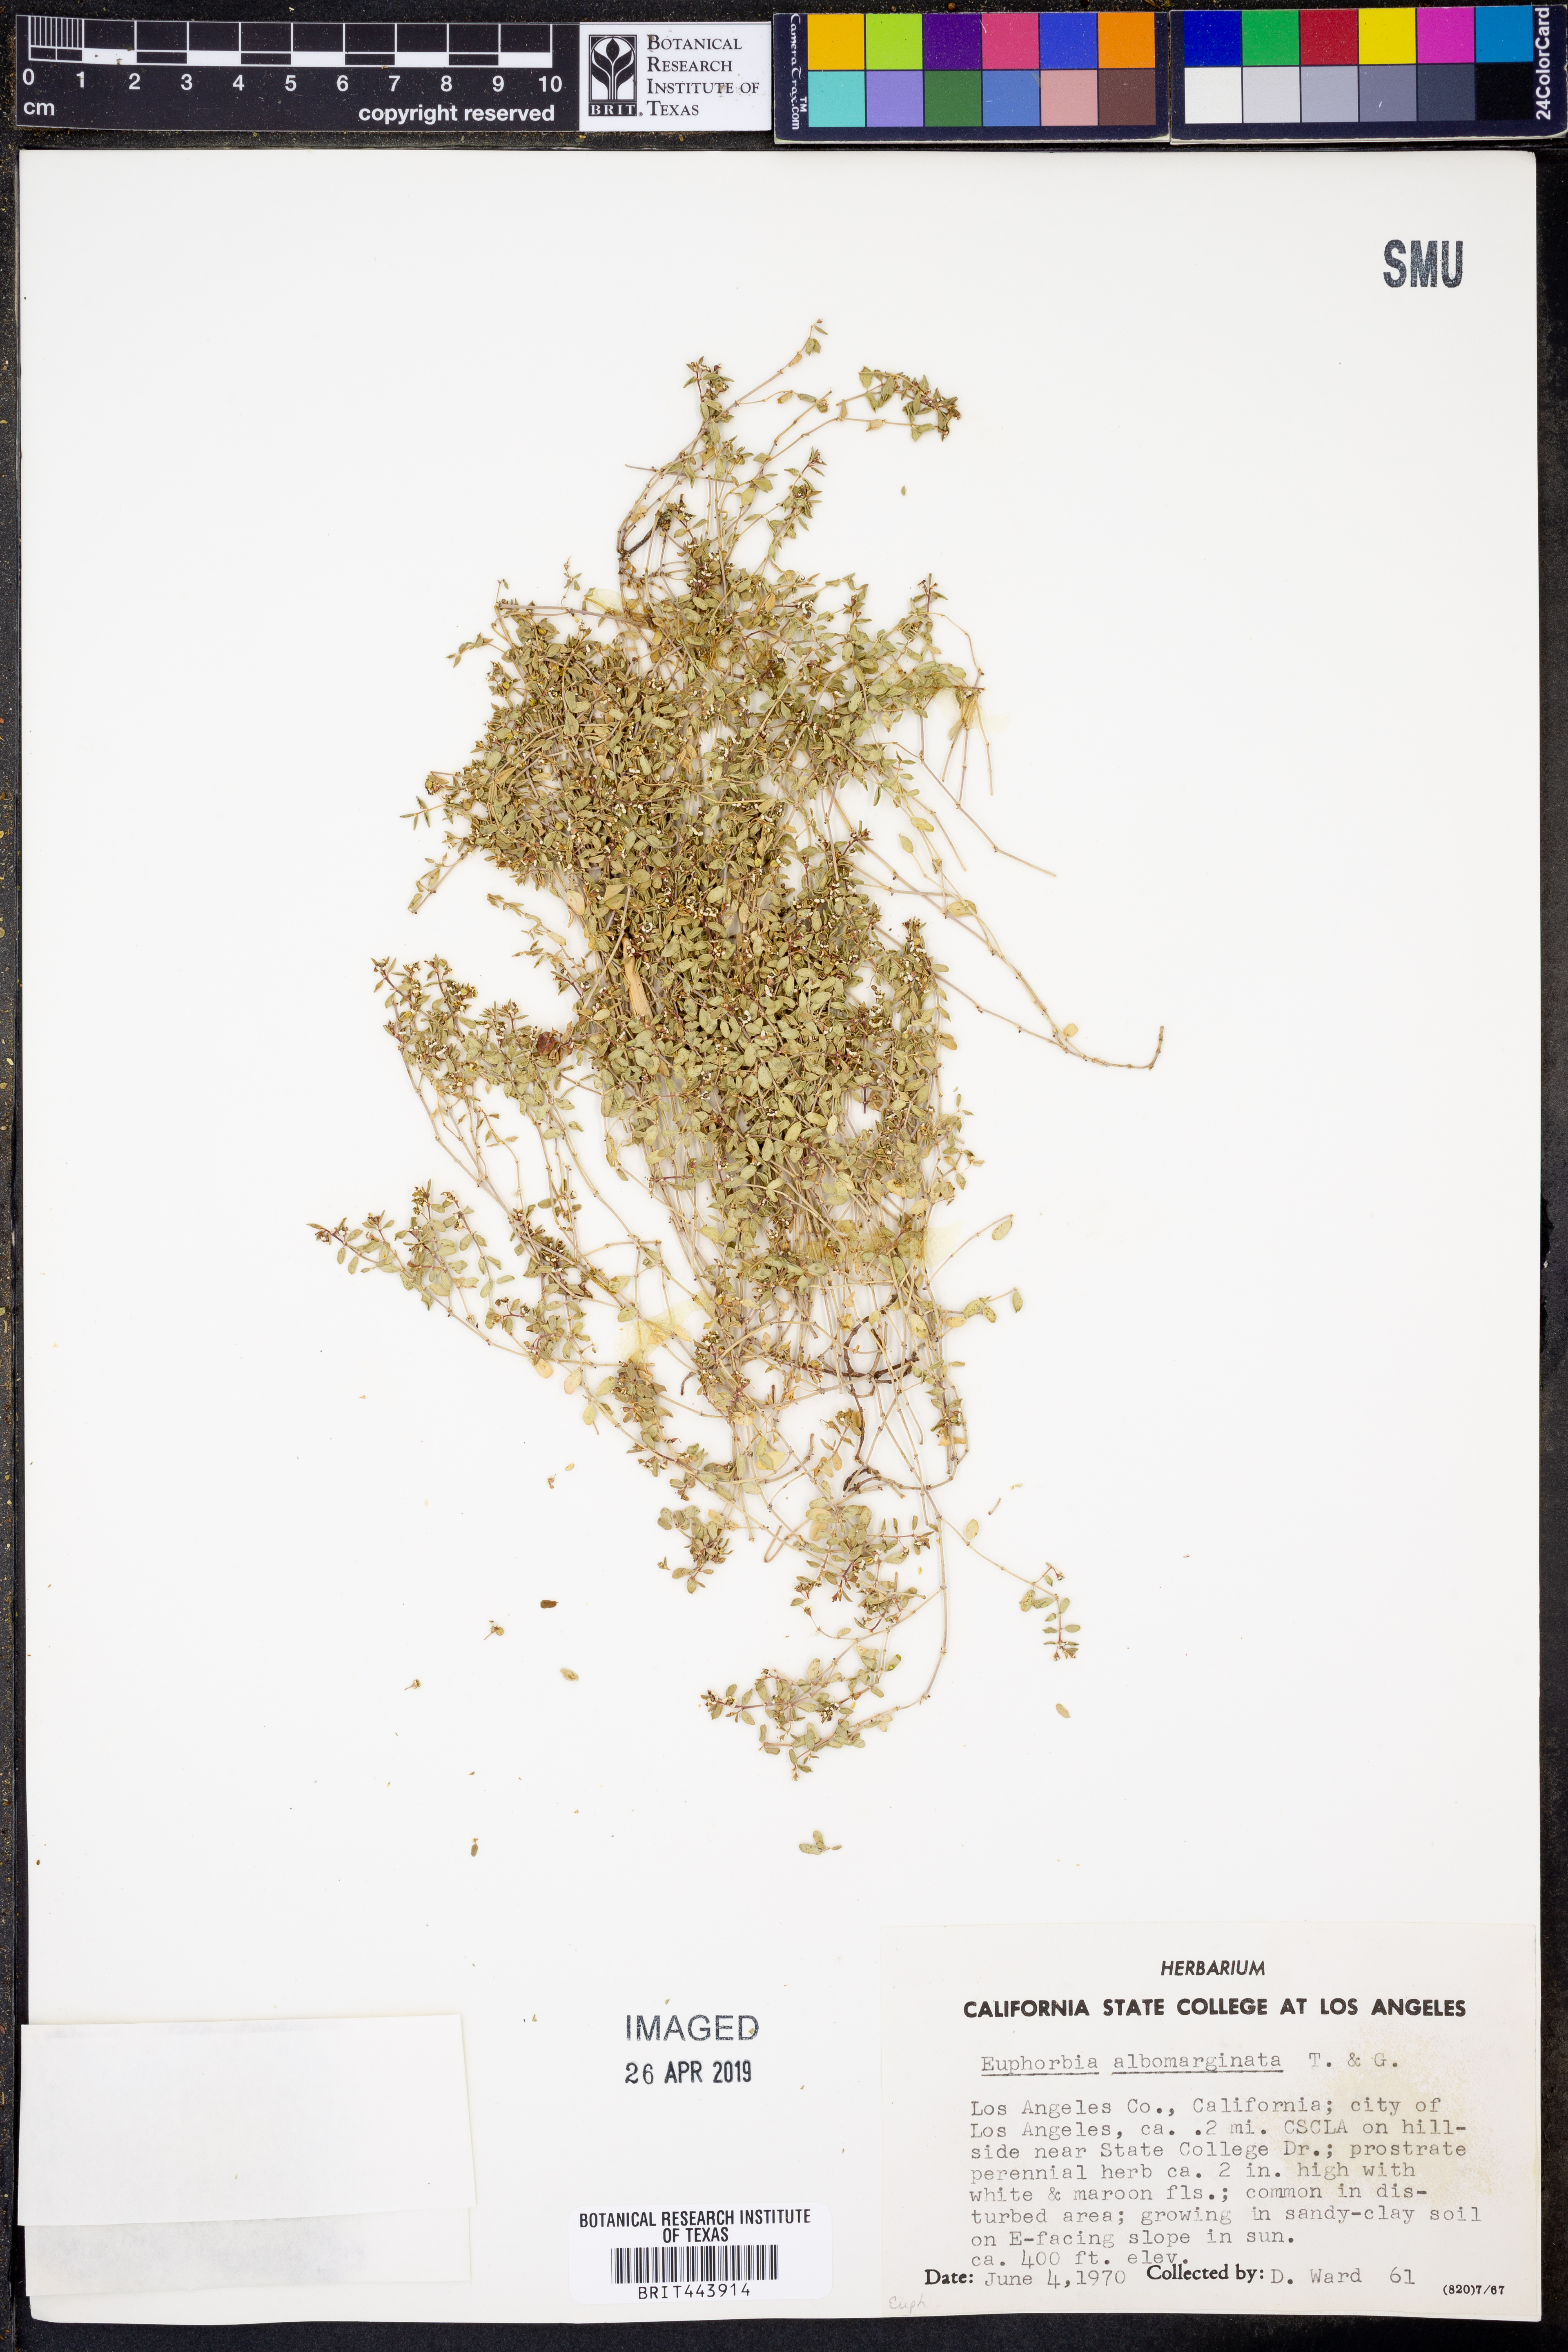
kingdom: Plantae
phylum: Tracheophyta
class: Magnoliopsida
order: Malpighiales
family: Euphorbiaceae
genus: Euphorbia
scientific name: Euphorbia albomarginata
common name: Whitemargin sandmat
